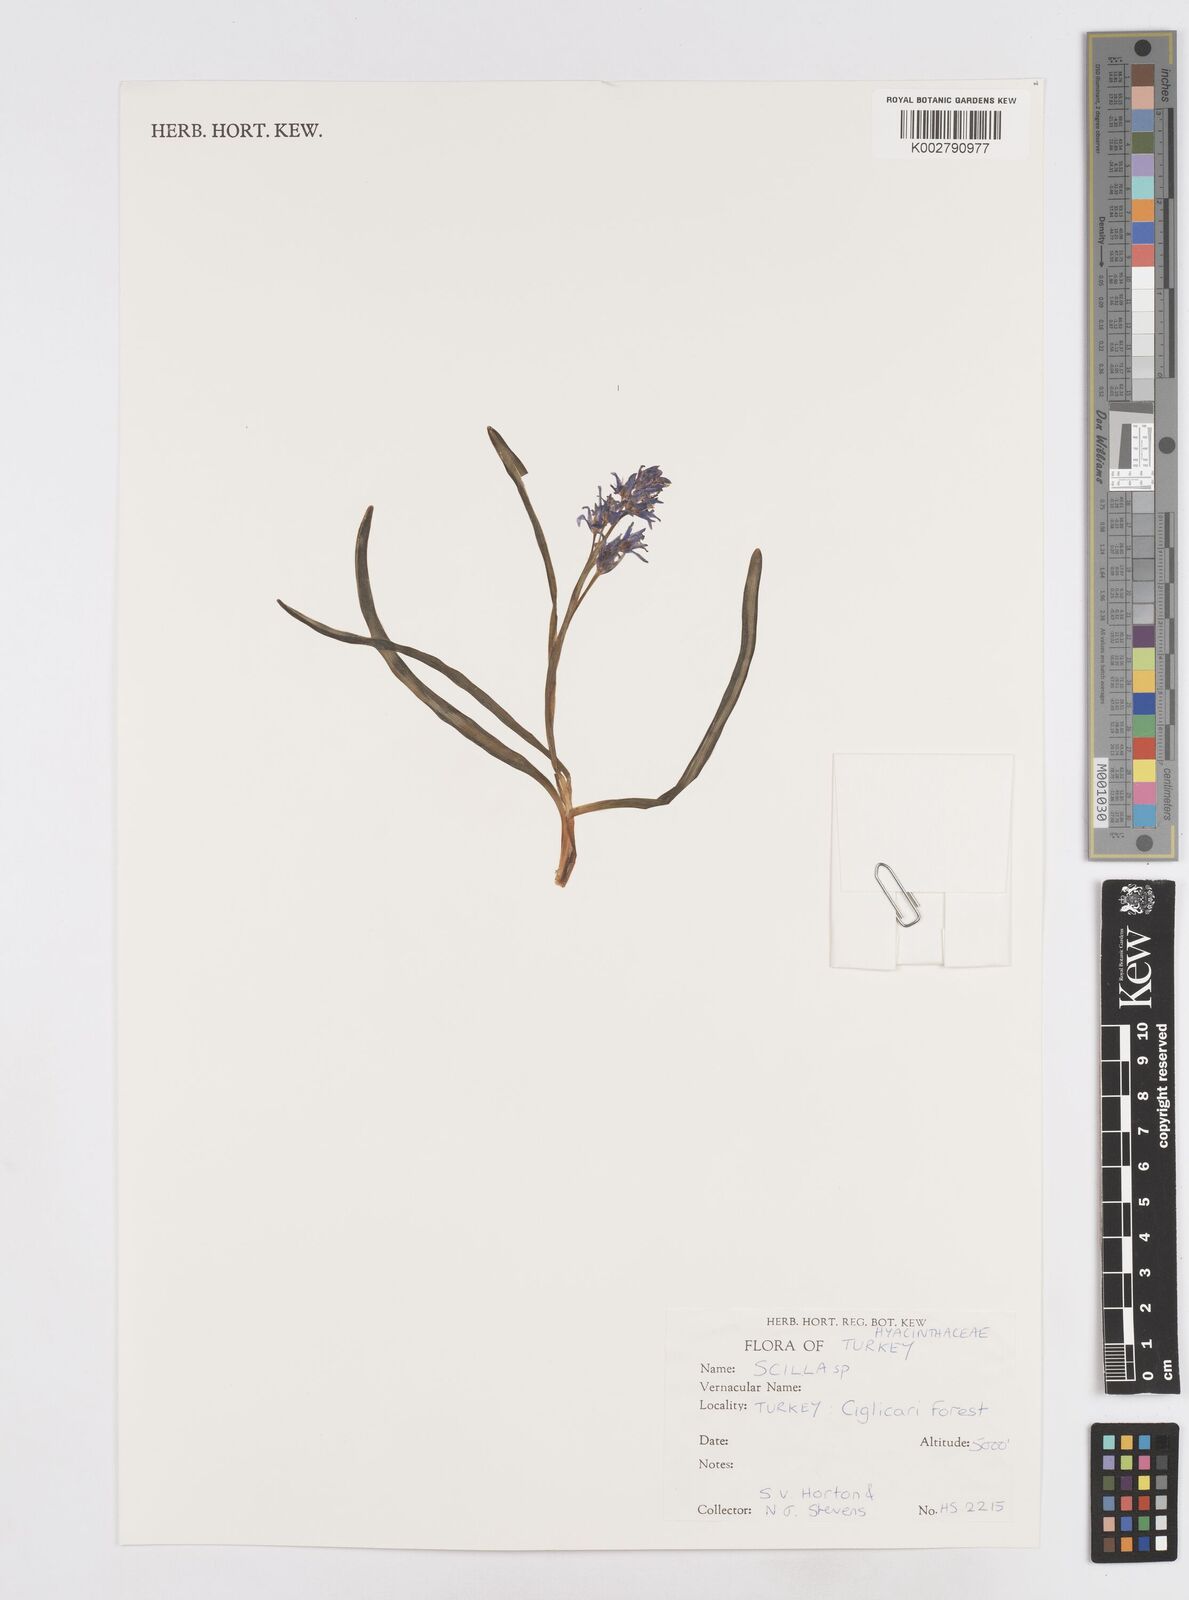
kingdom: Plantae
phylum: Tracheophyta
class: Liliopsida
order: Asparagales
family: Asparagaceae
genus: Scilla
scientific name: Scilla
